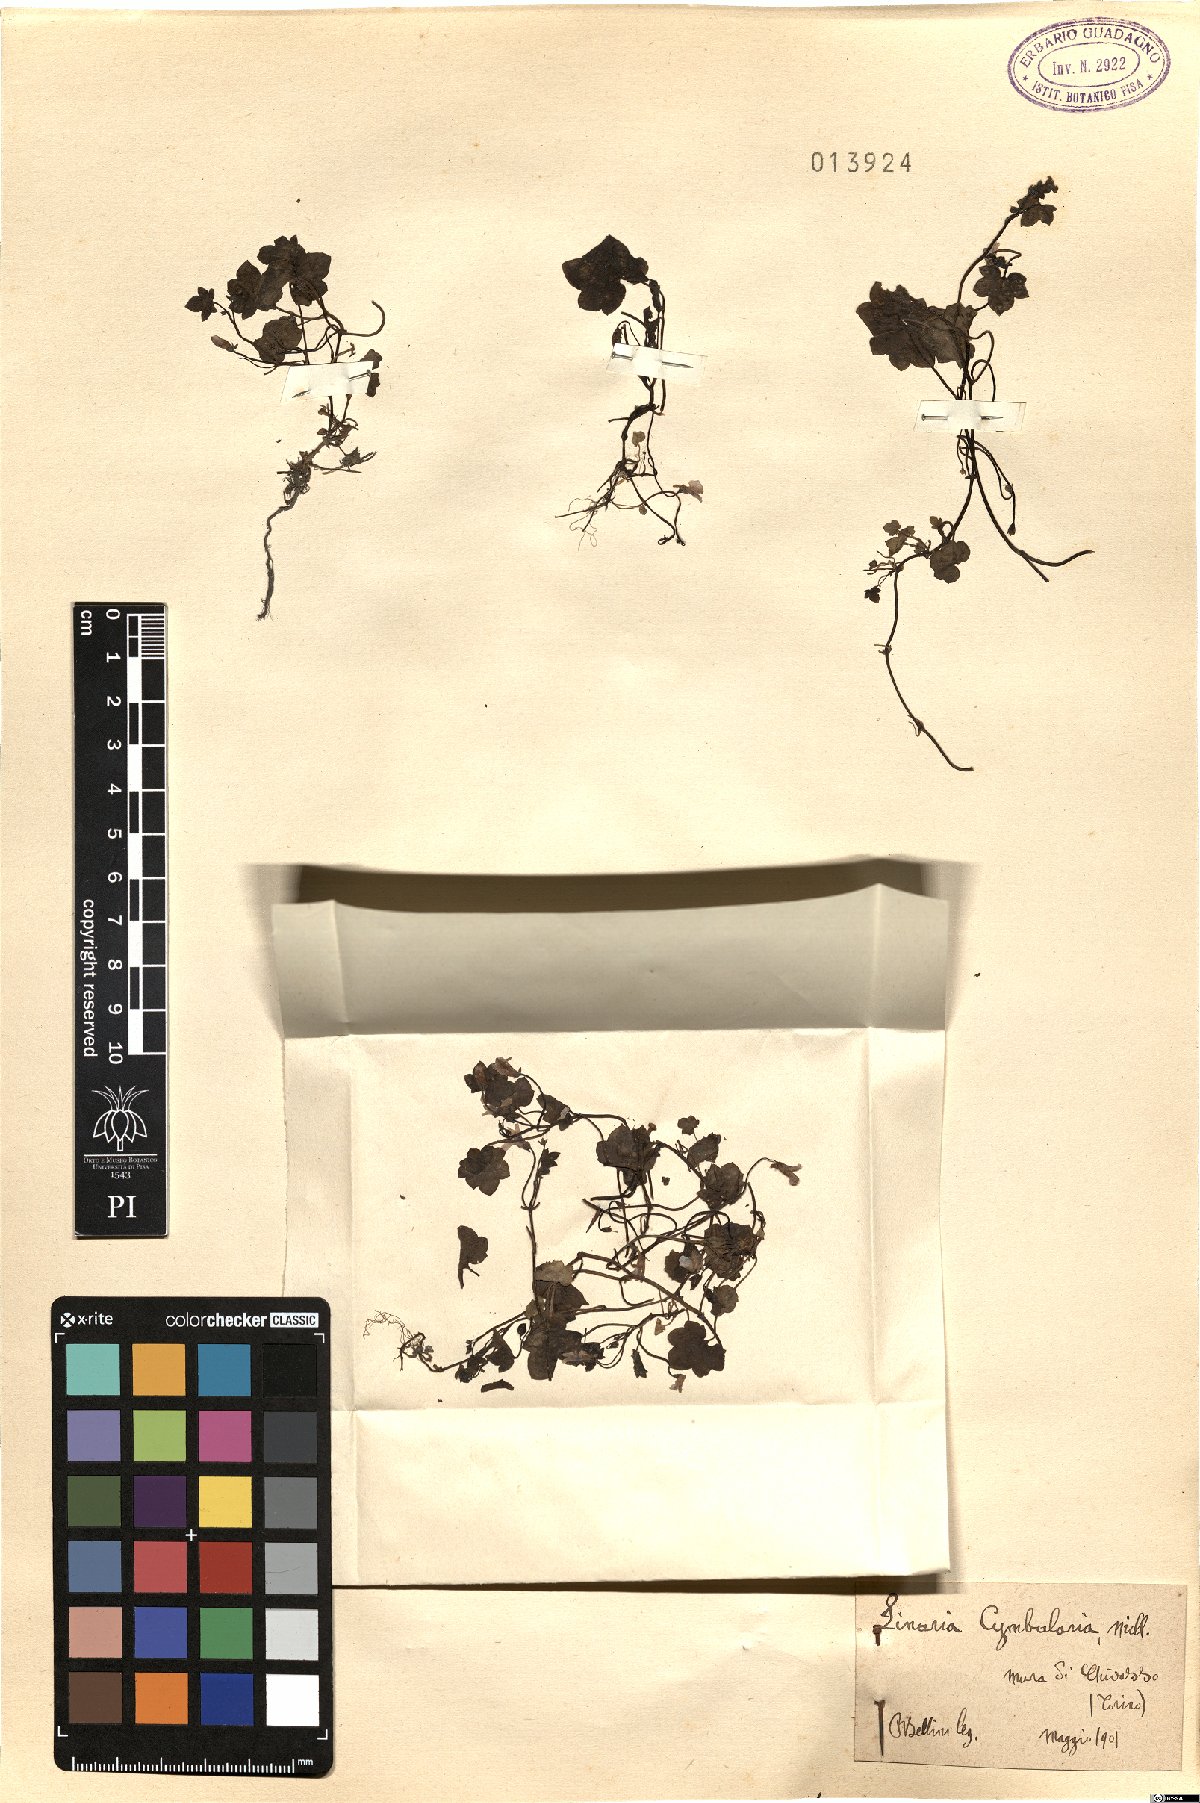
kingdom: Plantae
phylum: Tracheophyta
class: Magnoliopsida
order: Lamiales
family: Plantaginaceae
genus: Cymbalaria
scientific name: Cymbalaria muralis
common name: Ivy-leaved toadflax
